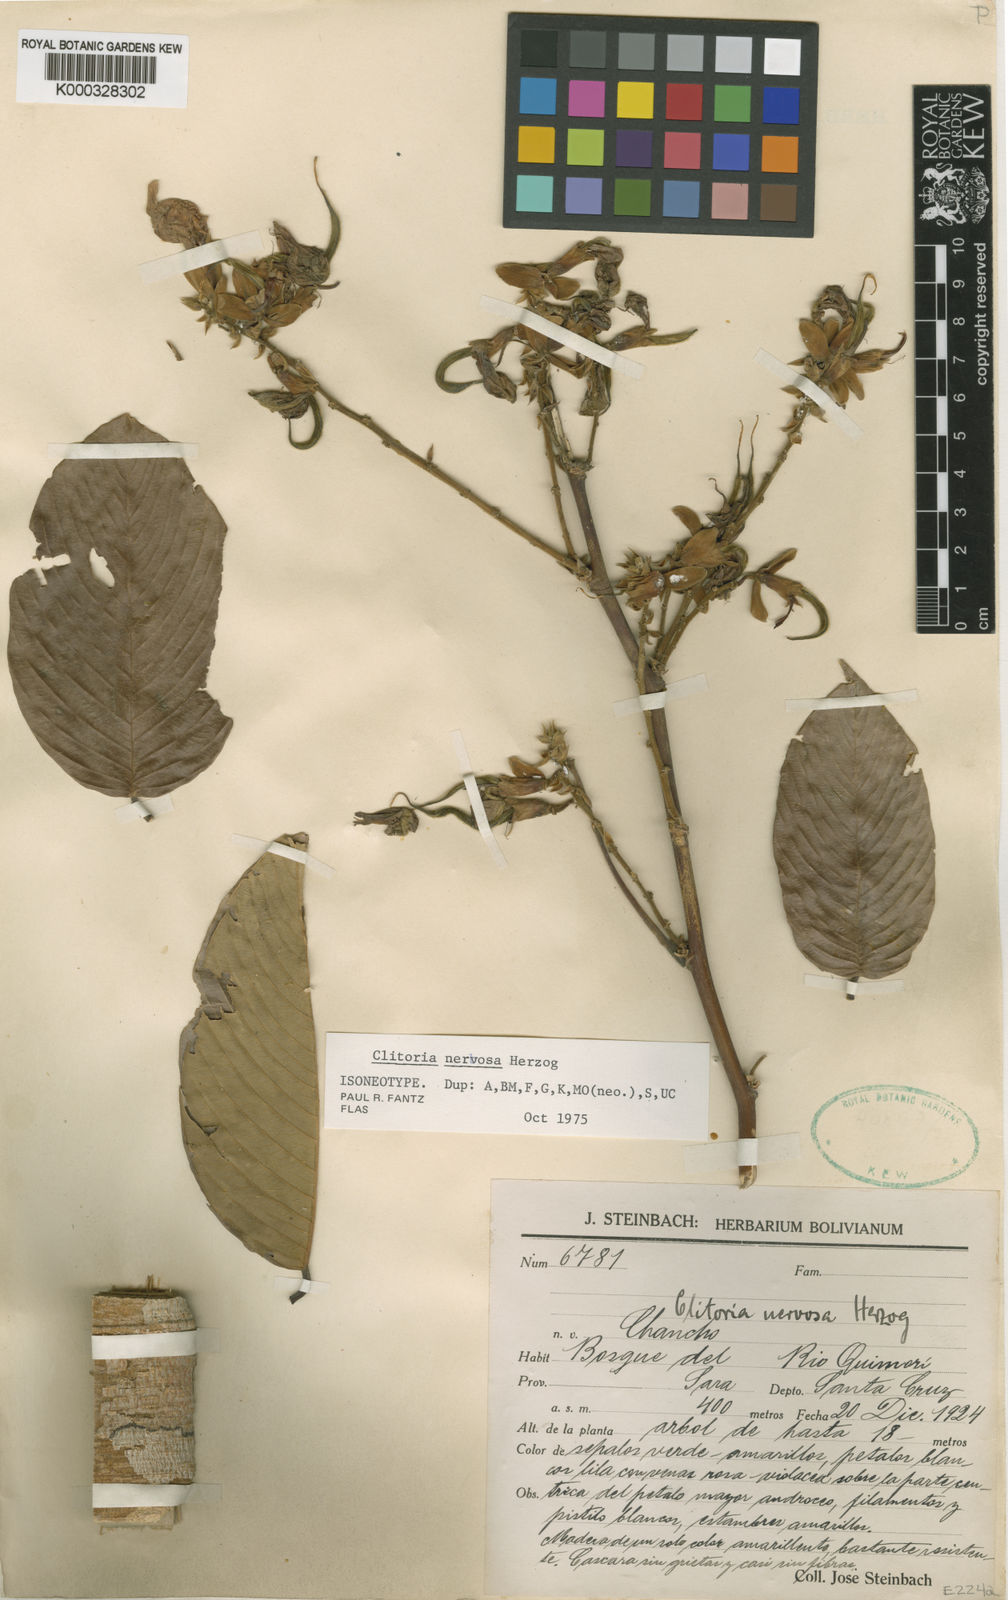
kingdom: Plantae
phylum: Tracheophyta
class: Magnoliopsida
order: Fabales
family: Fabaceae
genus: Clitoria
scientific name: Clitoria nervosa
